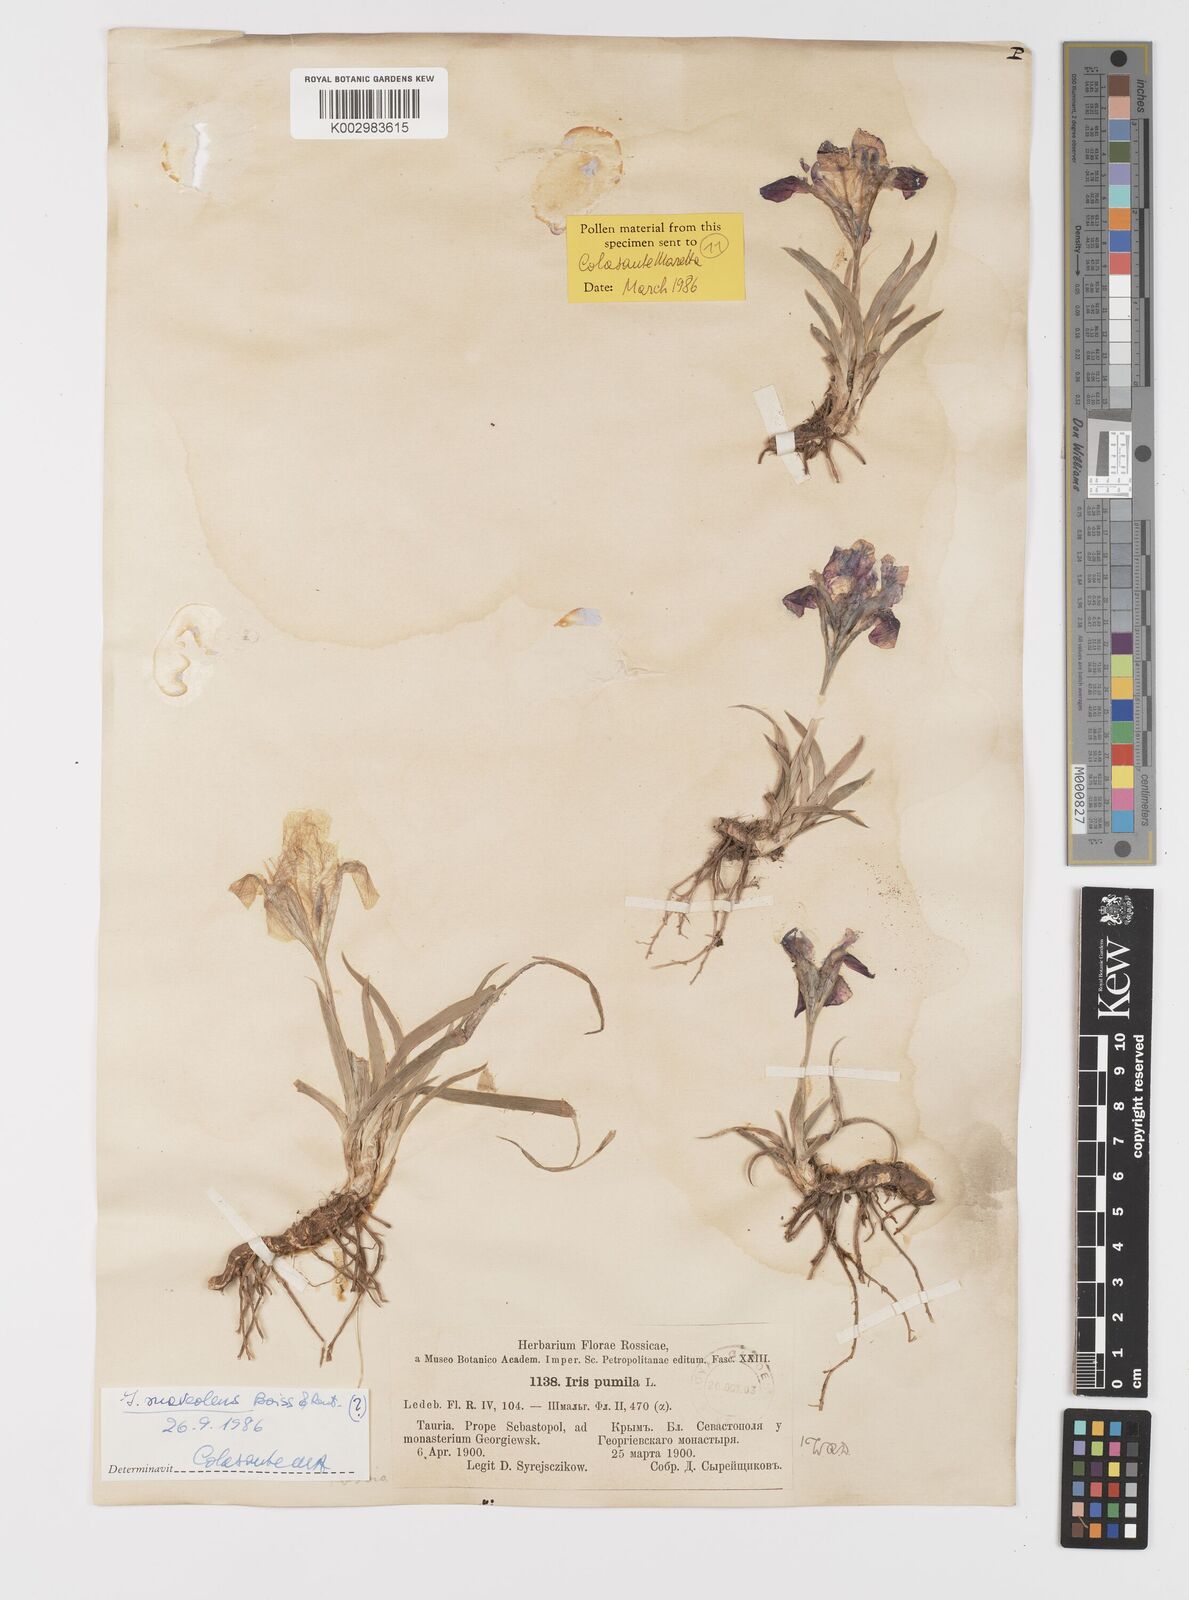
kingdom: Plantae
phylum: Tracheophyta
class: Liliopsida
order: Asparagales
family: Iridaceae
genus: Iris
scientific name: Iris pumila
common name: Dwarf iris
